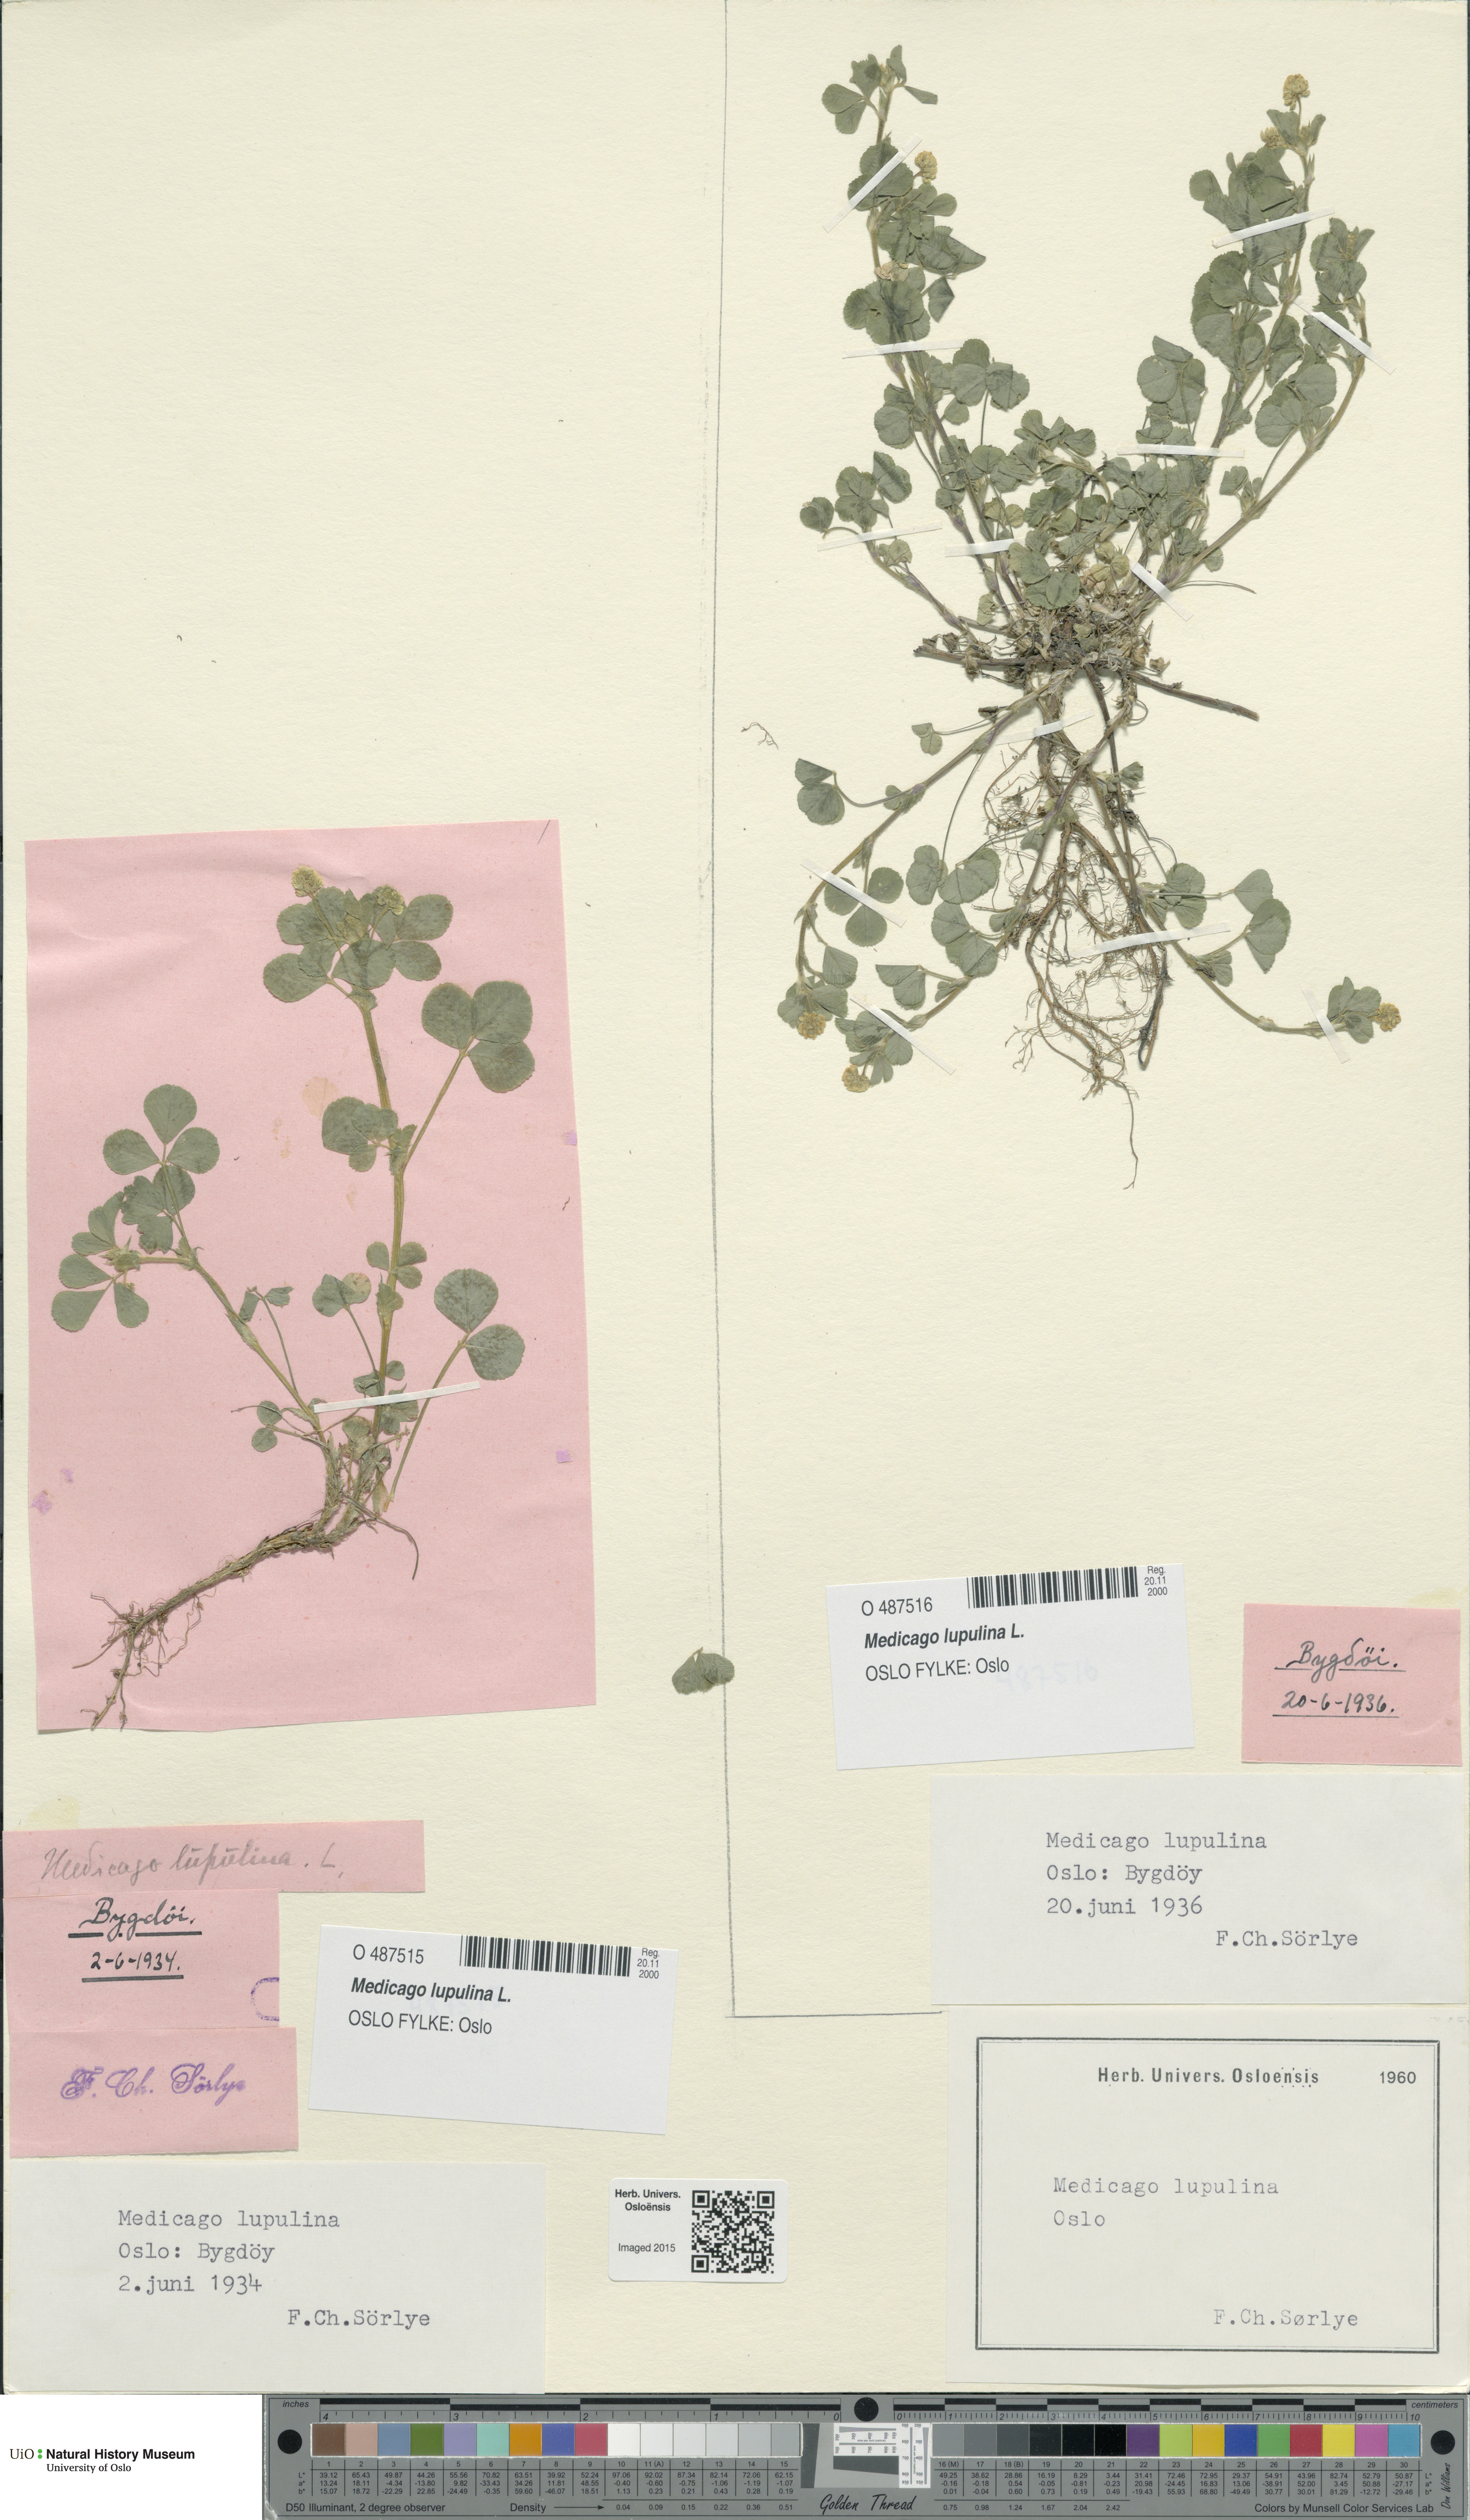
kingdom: Plantae
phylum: Tracheophyta
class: Magnoliopsida
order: Fabales
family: Fabaceae
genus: Medicago
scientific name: Medicago lupulina
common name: Black medick
